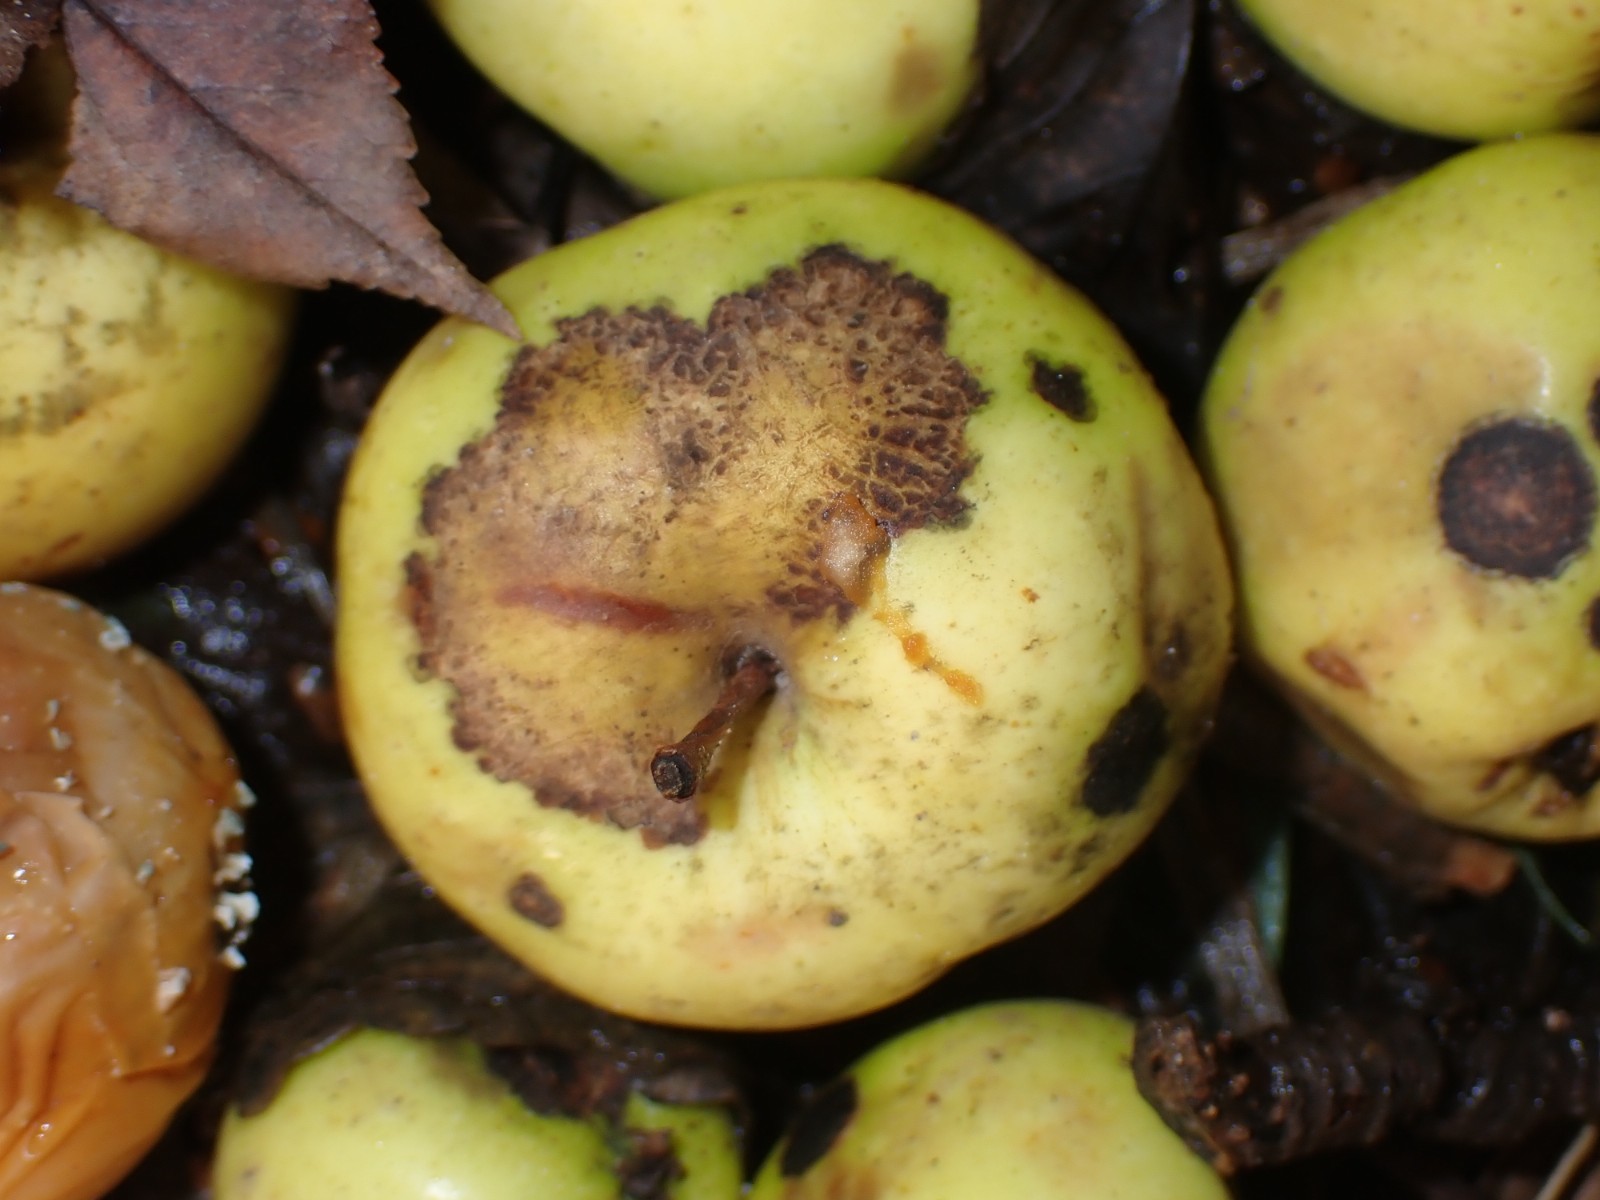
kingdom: Fungi
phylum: Ascomycota
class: Dothideomycetes
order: Venturiales
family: Venturiaceae
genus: Venturia
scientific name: Venturia inaequalis
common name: Apple scab
